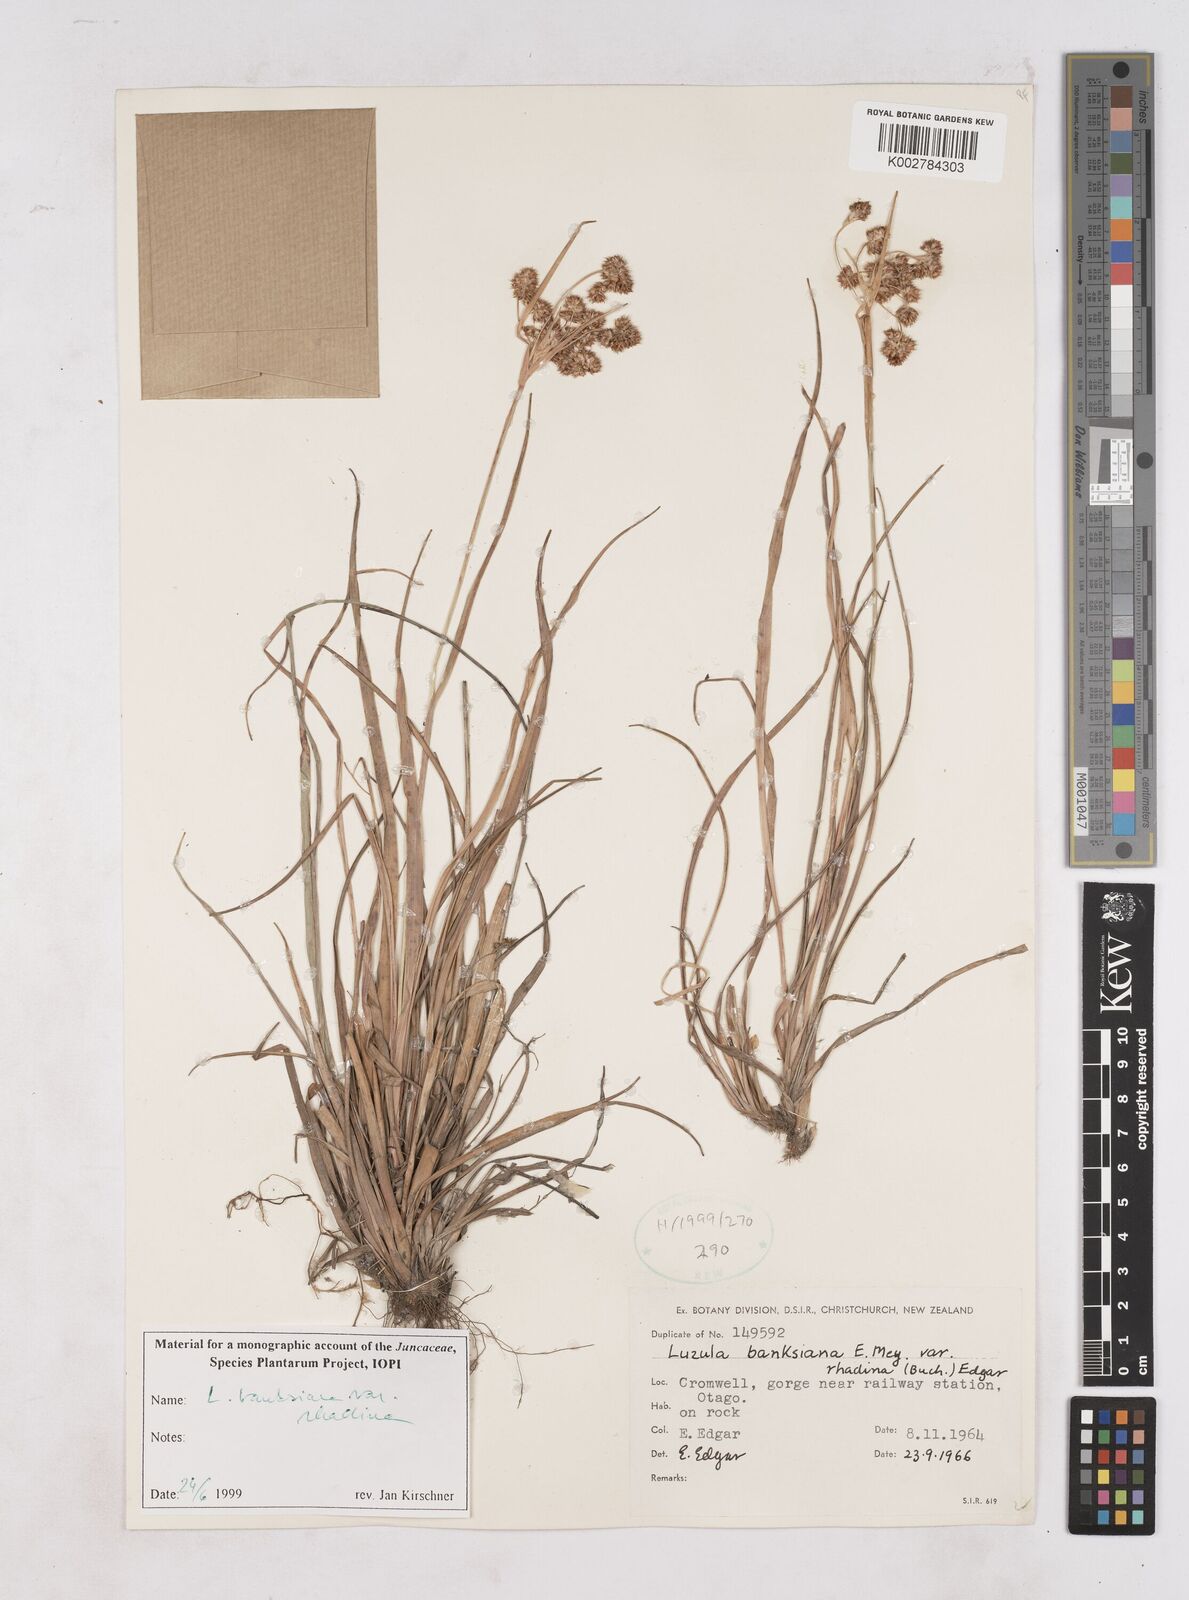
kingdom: Plantae
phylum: Tracheophyta
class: Liliopsida
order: Poales
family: Juncaceae
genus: Luzula
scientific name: Luzula banksiana
